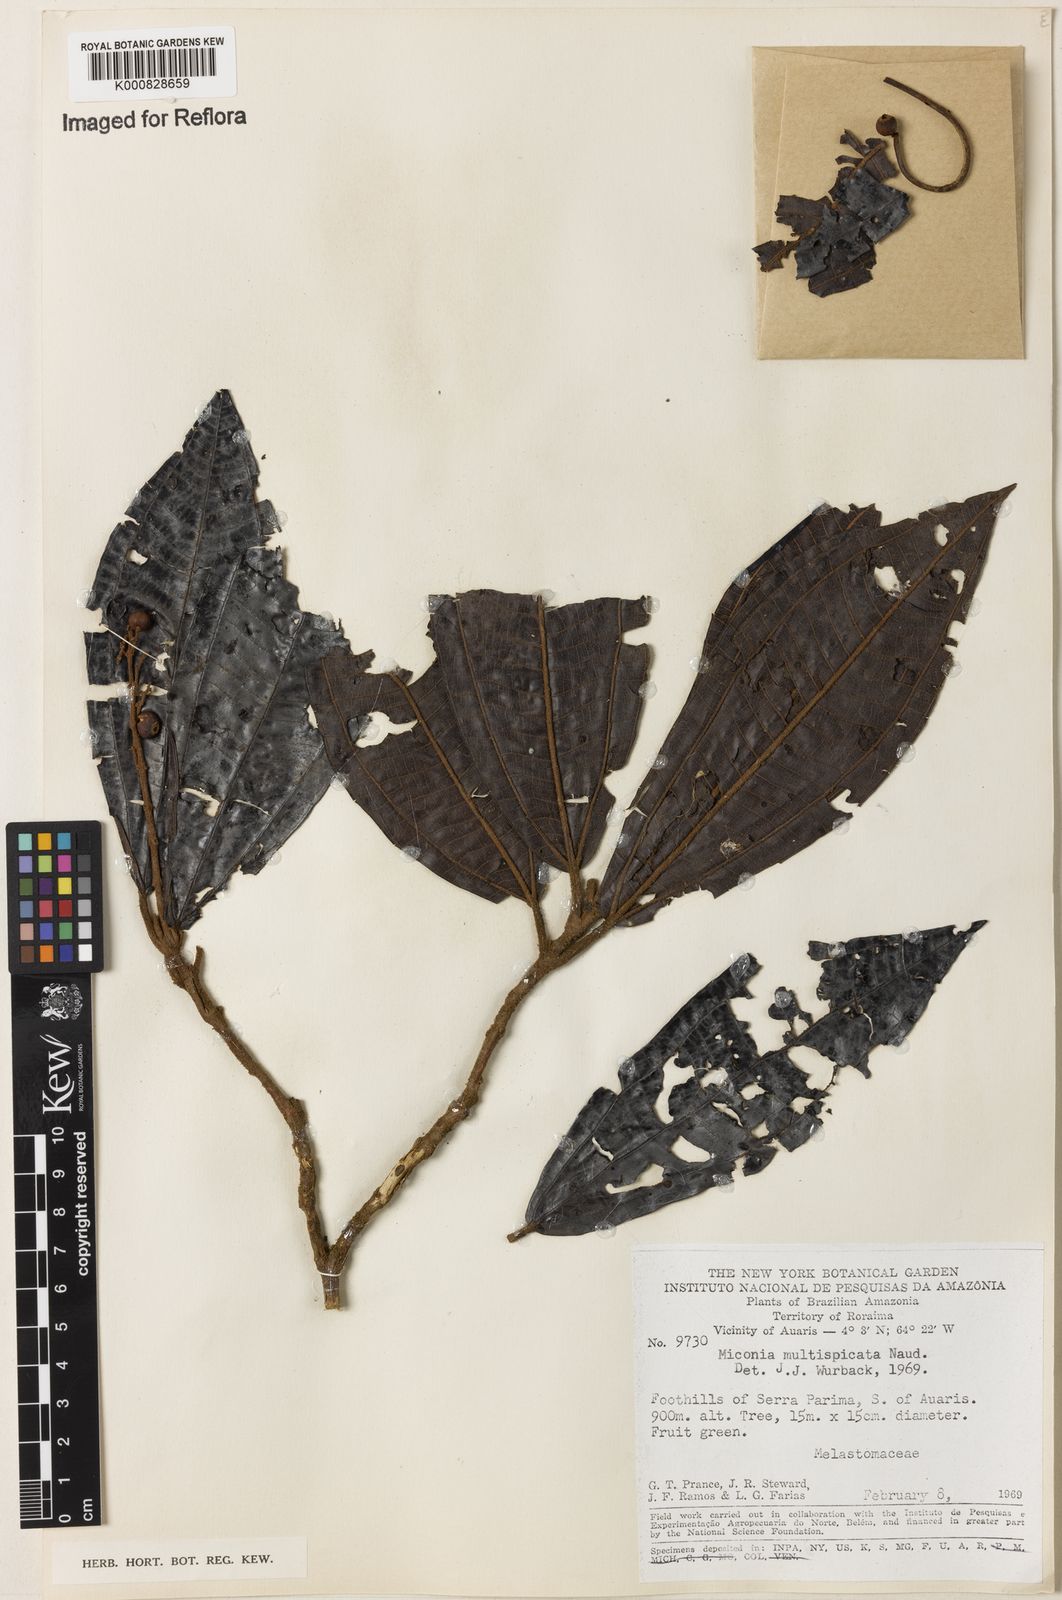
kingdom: Plantae
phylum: Tracheophyta
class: Magnoliopsida
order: Myrtales
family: Melastomataceae
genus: Miconia
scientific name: Miconia multispicata
